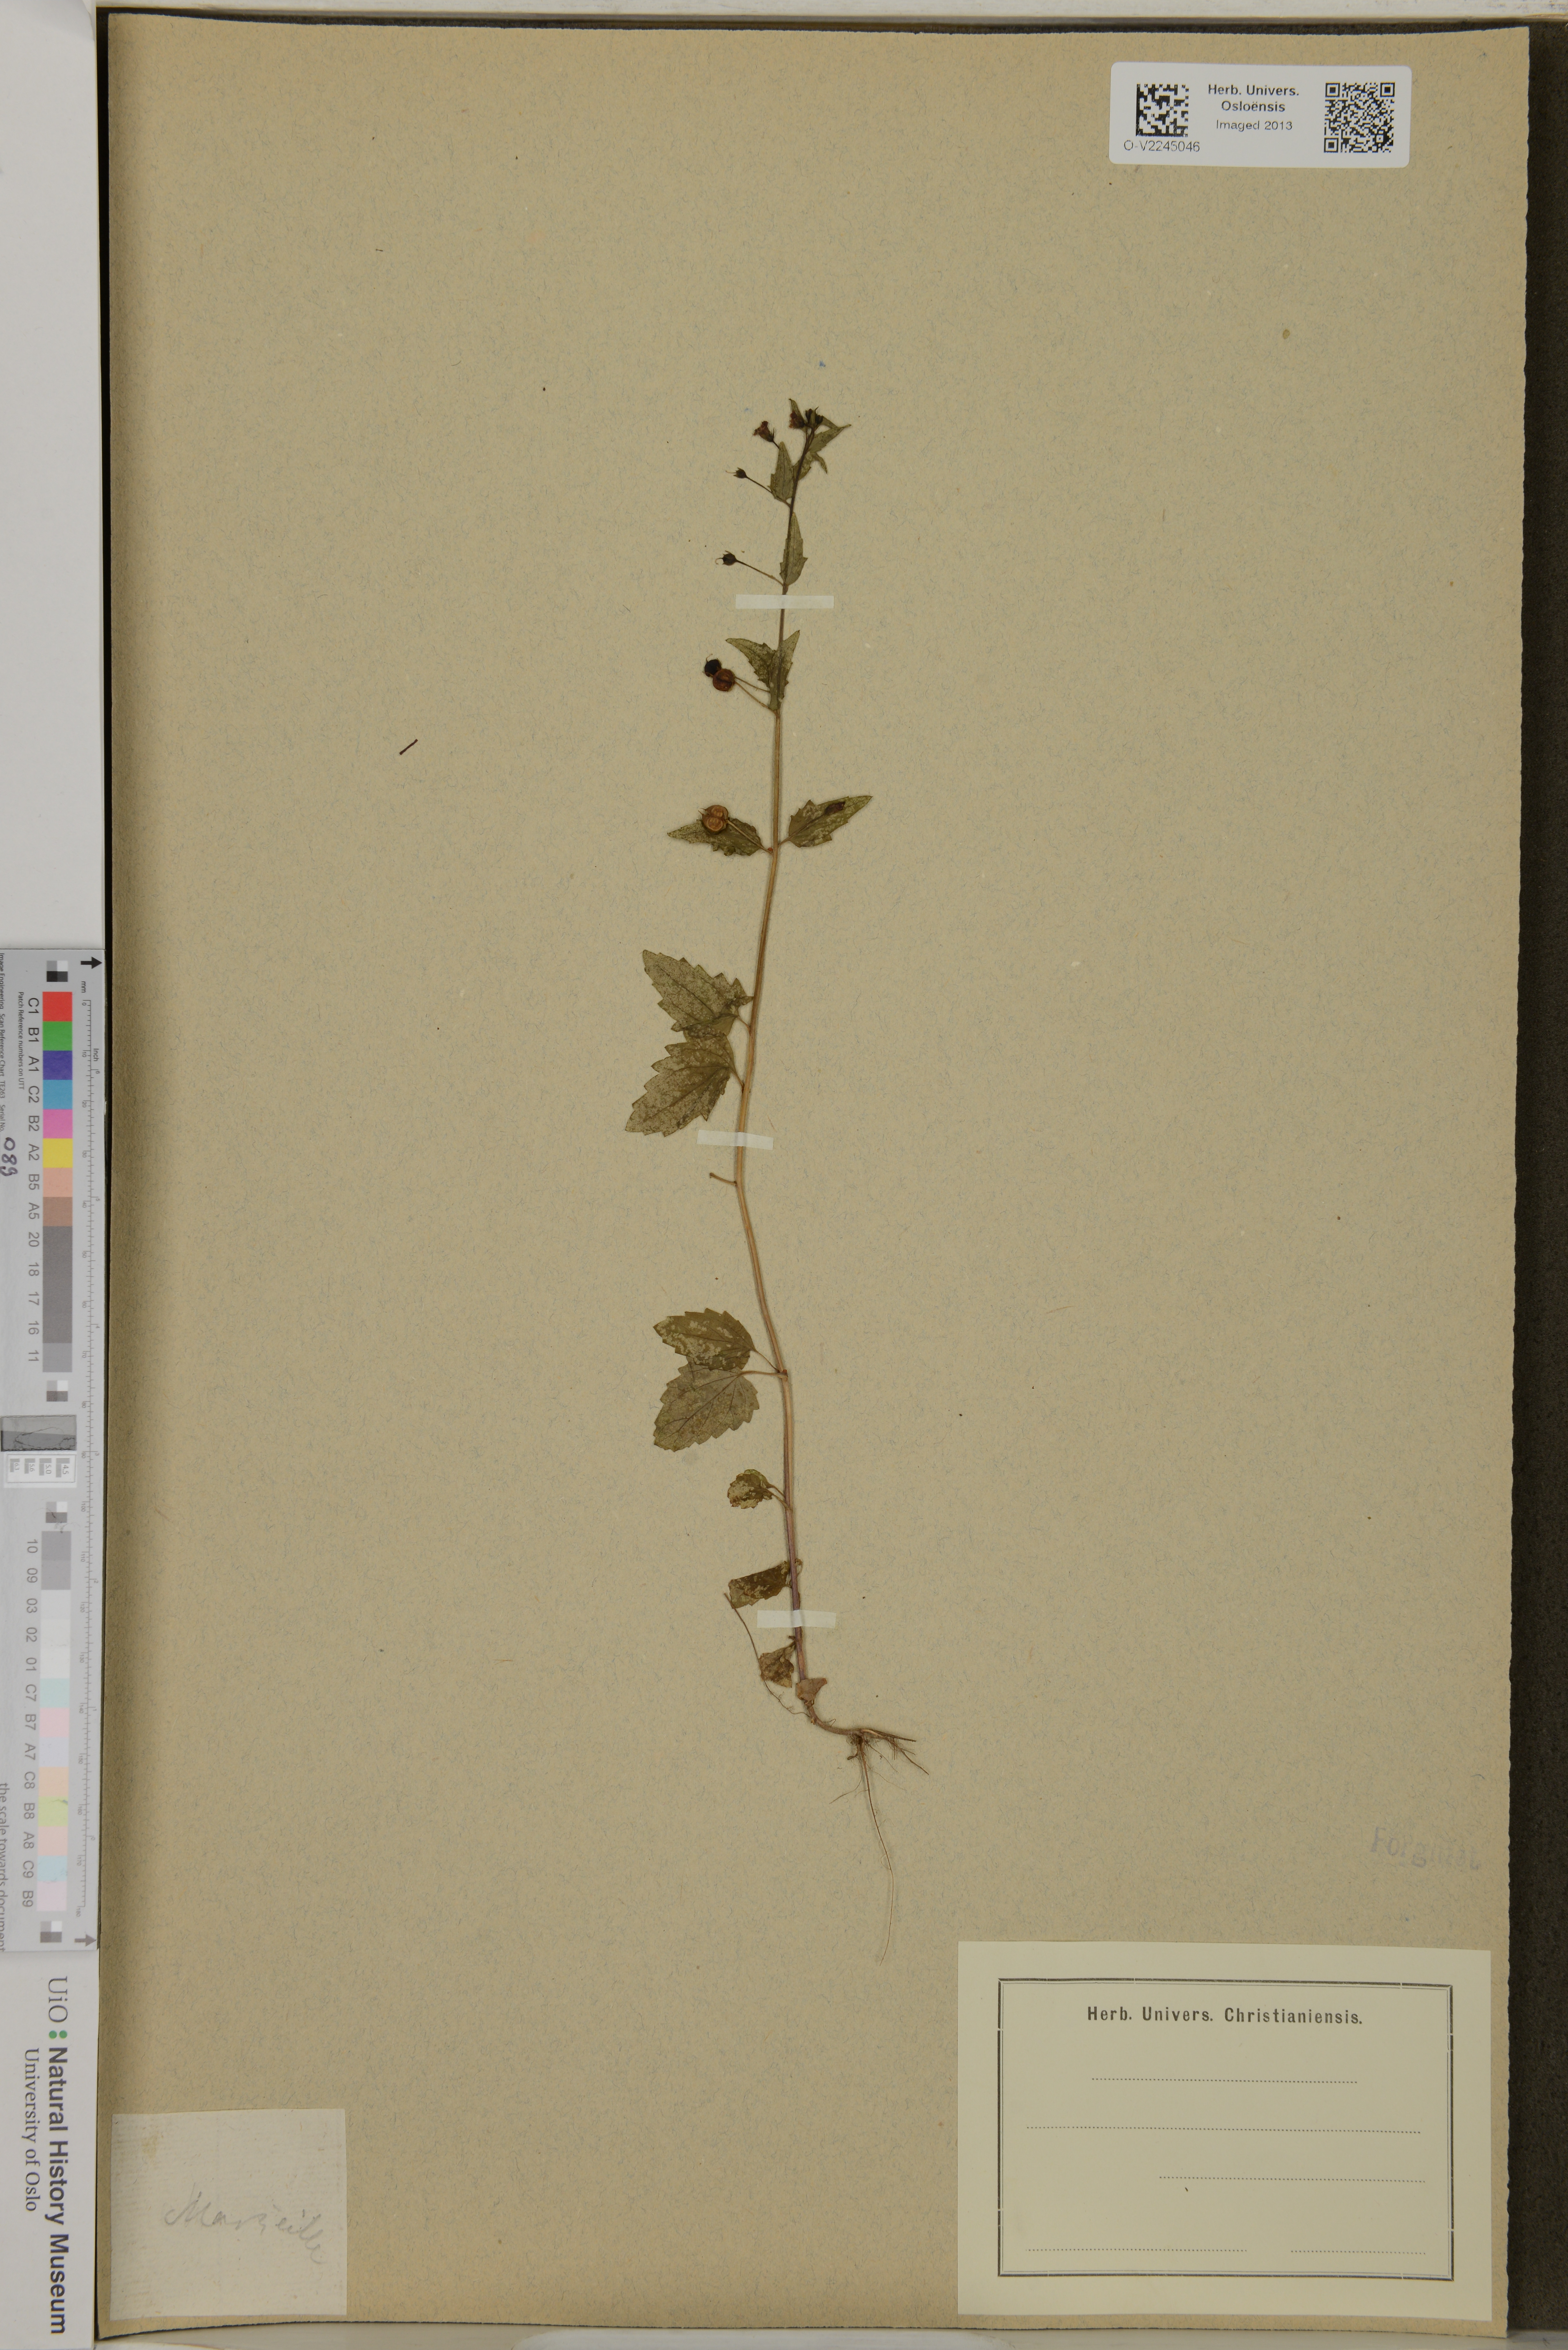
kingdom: Plantae
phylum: Tracheophyta
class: Magnoliopsida
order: Lamiales
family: Scrophulariaceae
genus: Scrophularia
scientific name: Scrophularia
